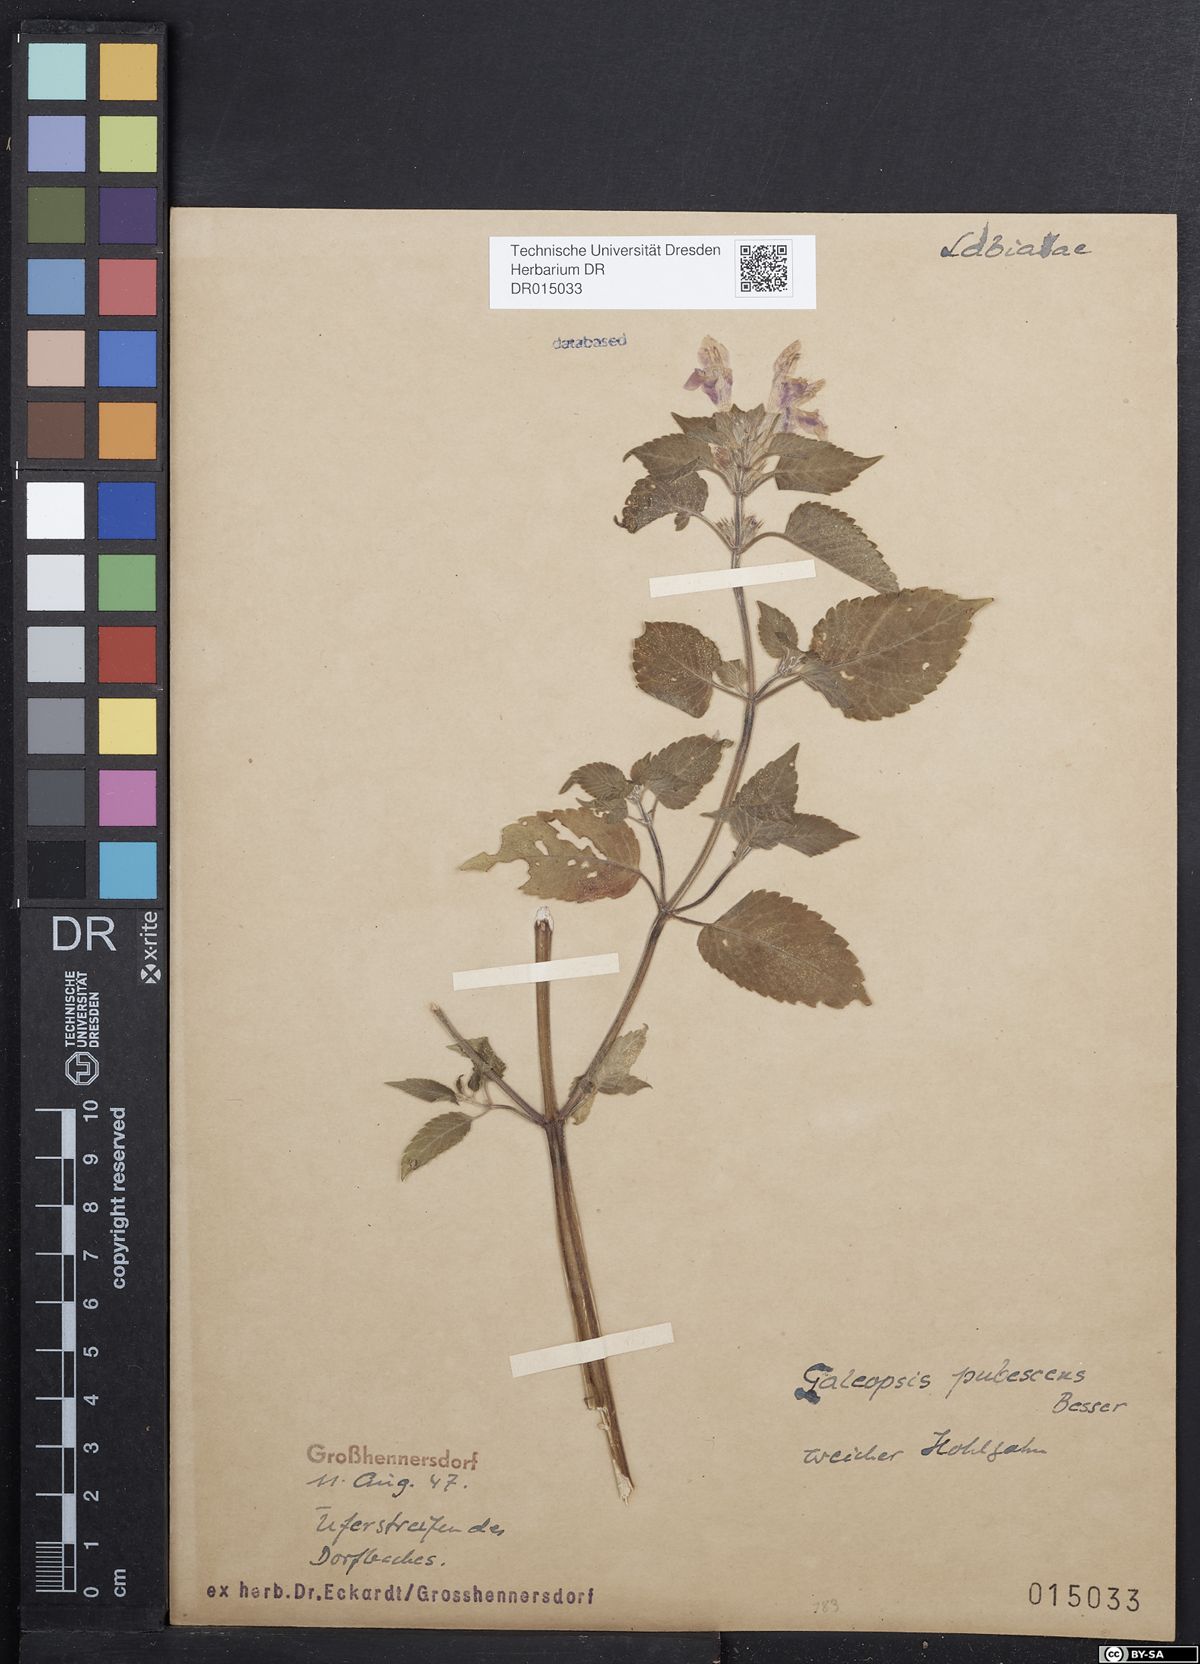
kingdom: Plantae
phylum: Tracheophyta
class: Magnoliopsida
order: Lamiales
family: Lamiaceae
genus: Galeopsis
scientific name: Galeopsis pubescens
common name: Downy hemp-nettle
